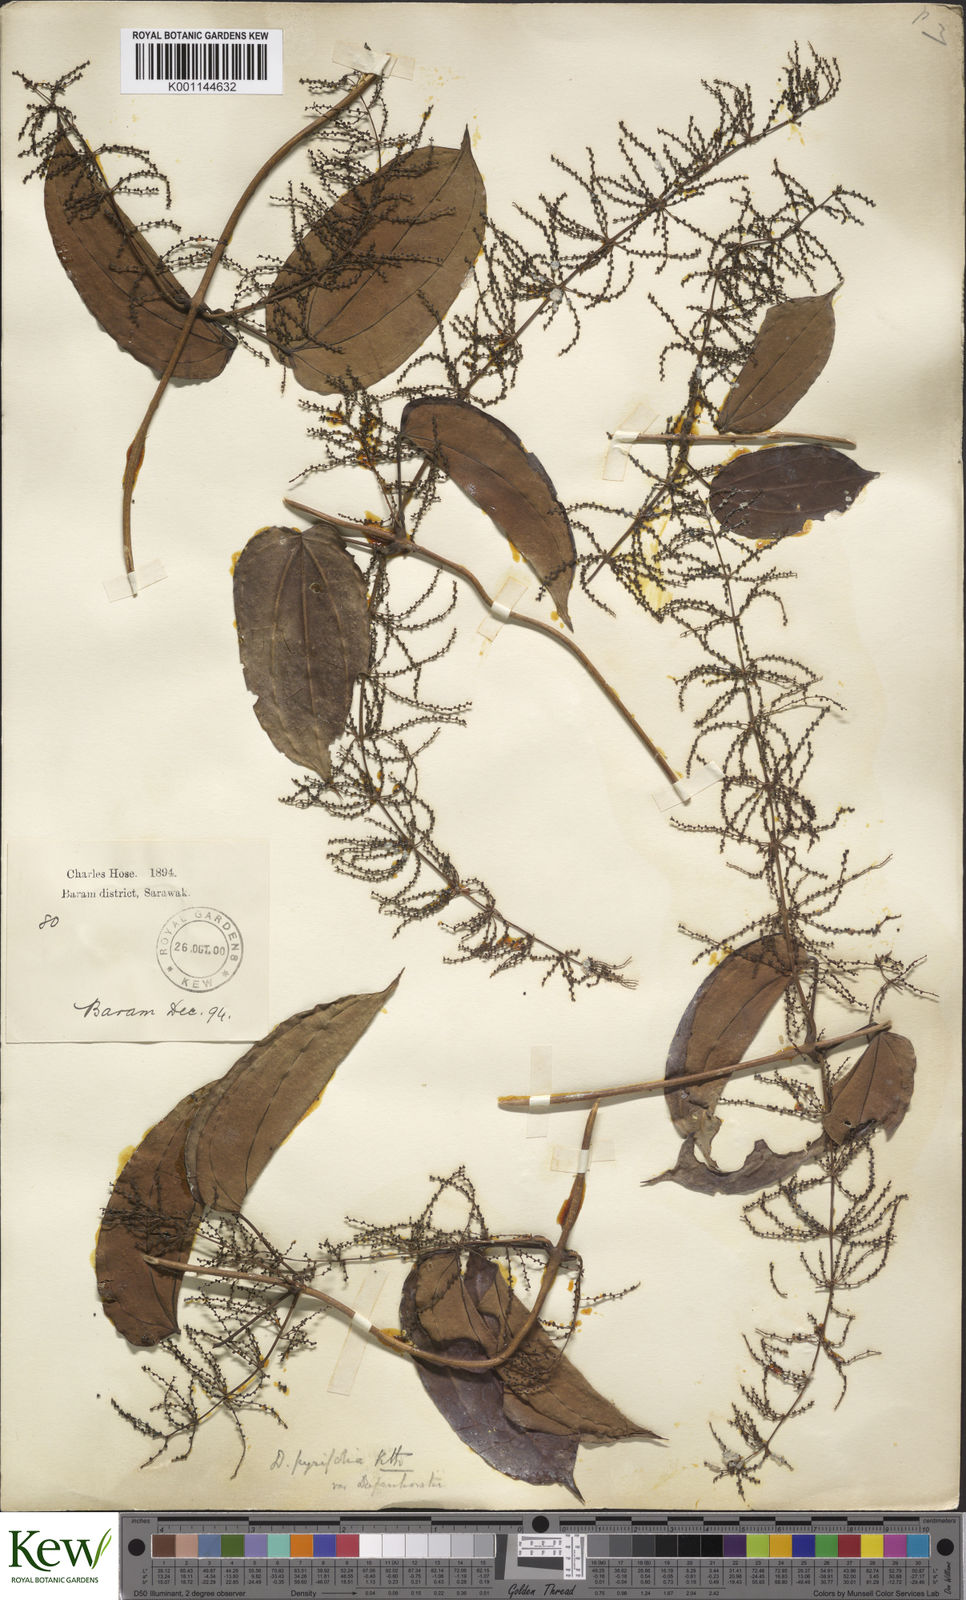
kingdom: Plantae
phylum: Tracheophyta
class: Liliopsida
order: Dioscoreales
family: Dioscoreaceae
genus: Dioscorea
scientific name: Dioscorea pyrifolia
